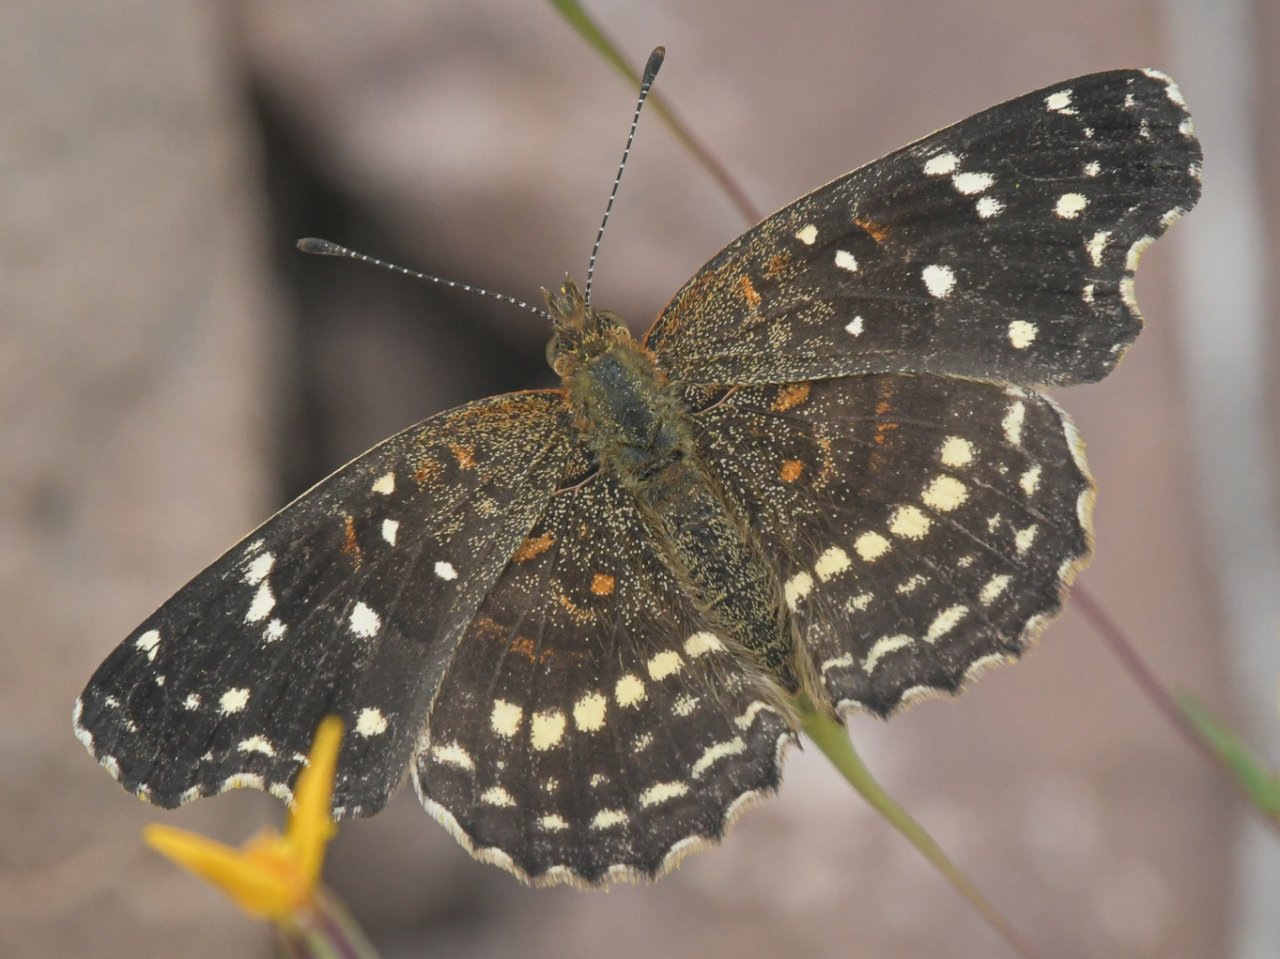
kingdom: Animalia
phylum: Arthropoda
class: Insecta
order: Lepidoptera
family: Nymphalidae
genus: Anthanassa
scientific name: Anthanassa texana
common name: Texan Crescent
